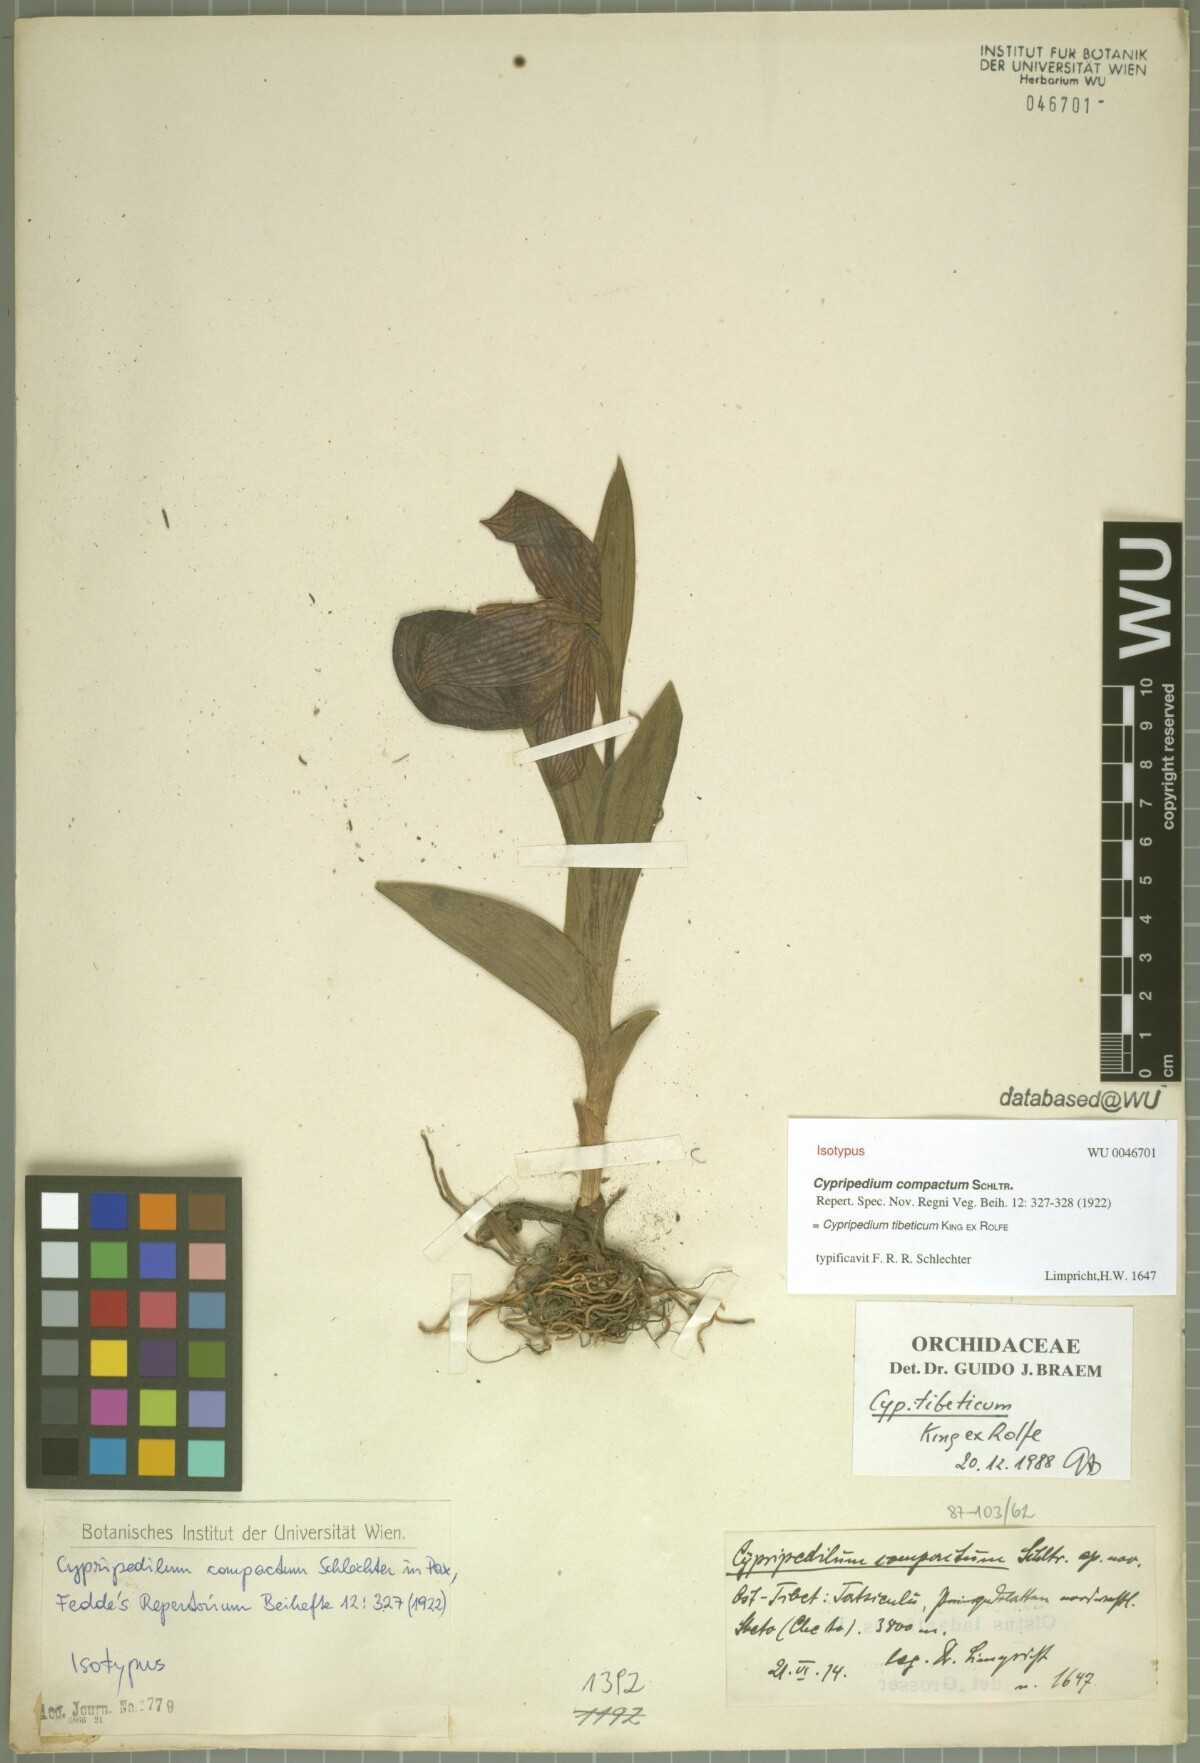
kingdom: Plantae
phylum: Tracheophyta
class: Liliopsida
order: Asparagales
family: Orchidaceae
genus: Cypripedium
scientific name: Cypripedium tibeticum
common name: Tibetan cypripedium
